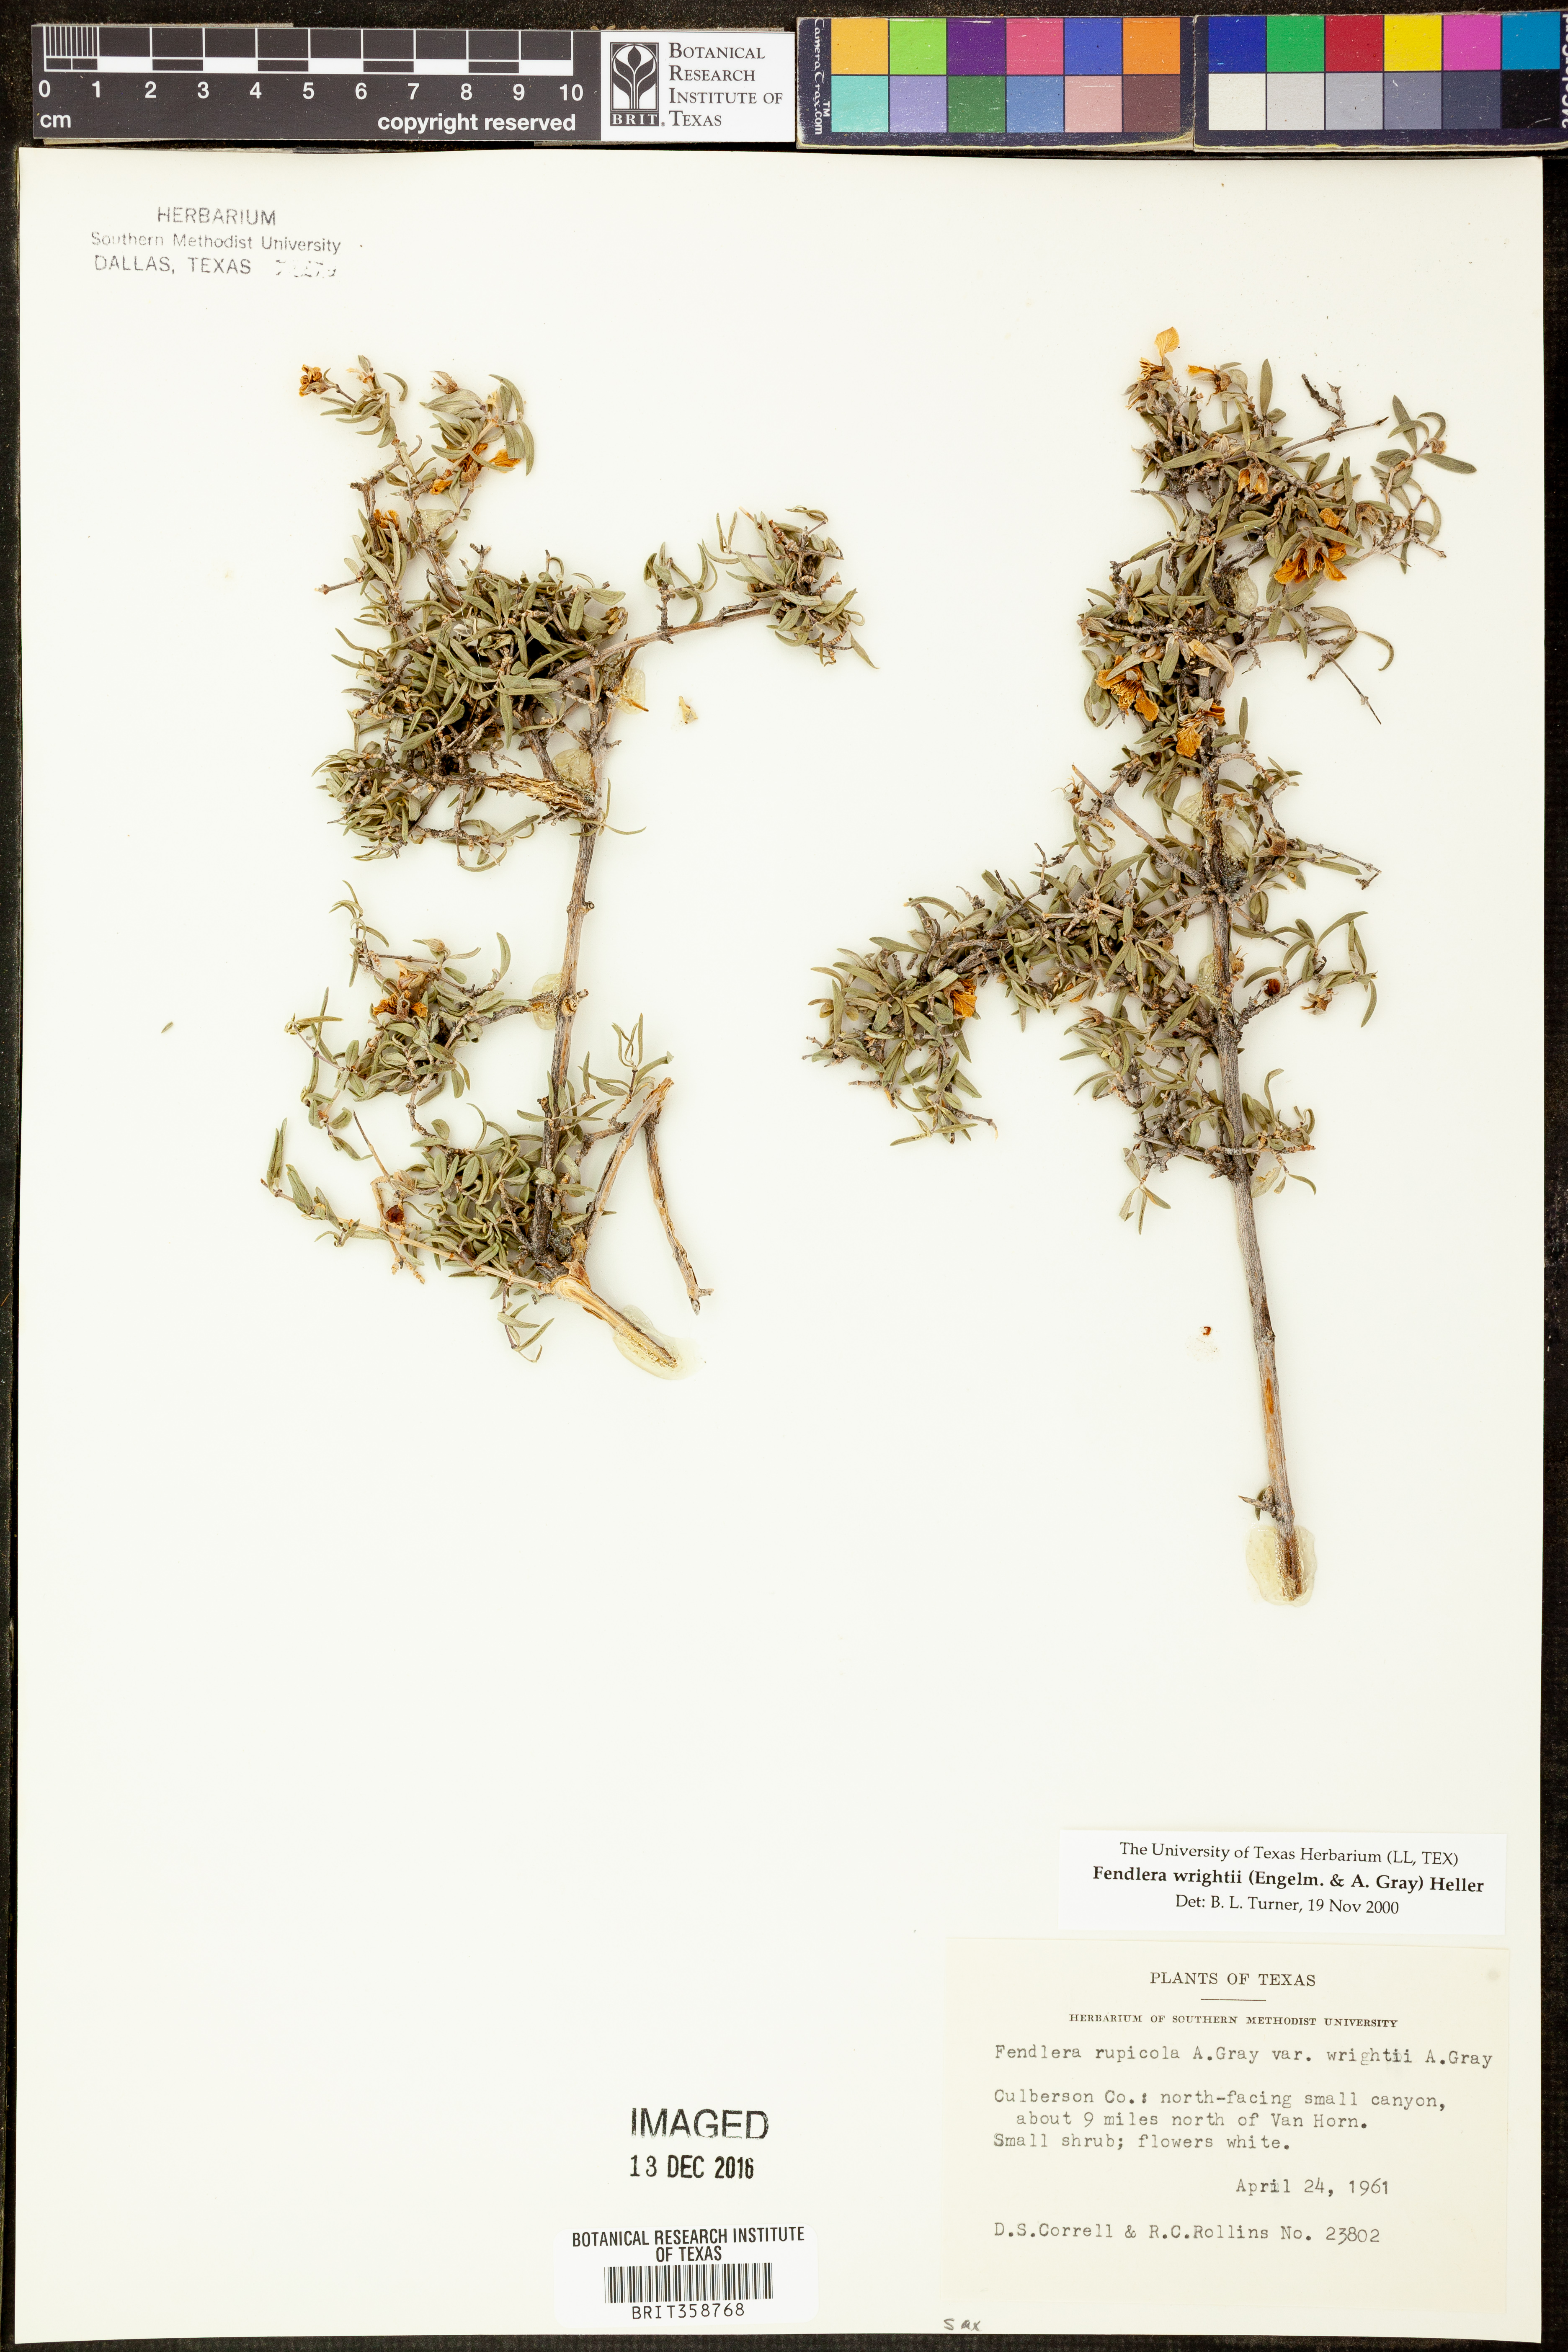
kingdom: Plantae
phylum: Tracheophyta
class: Magnoliopsida
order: Cornales
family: Hydrangeaceae
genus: Fendlera
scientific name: Fendlera wrightii
